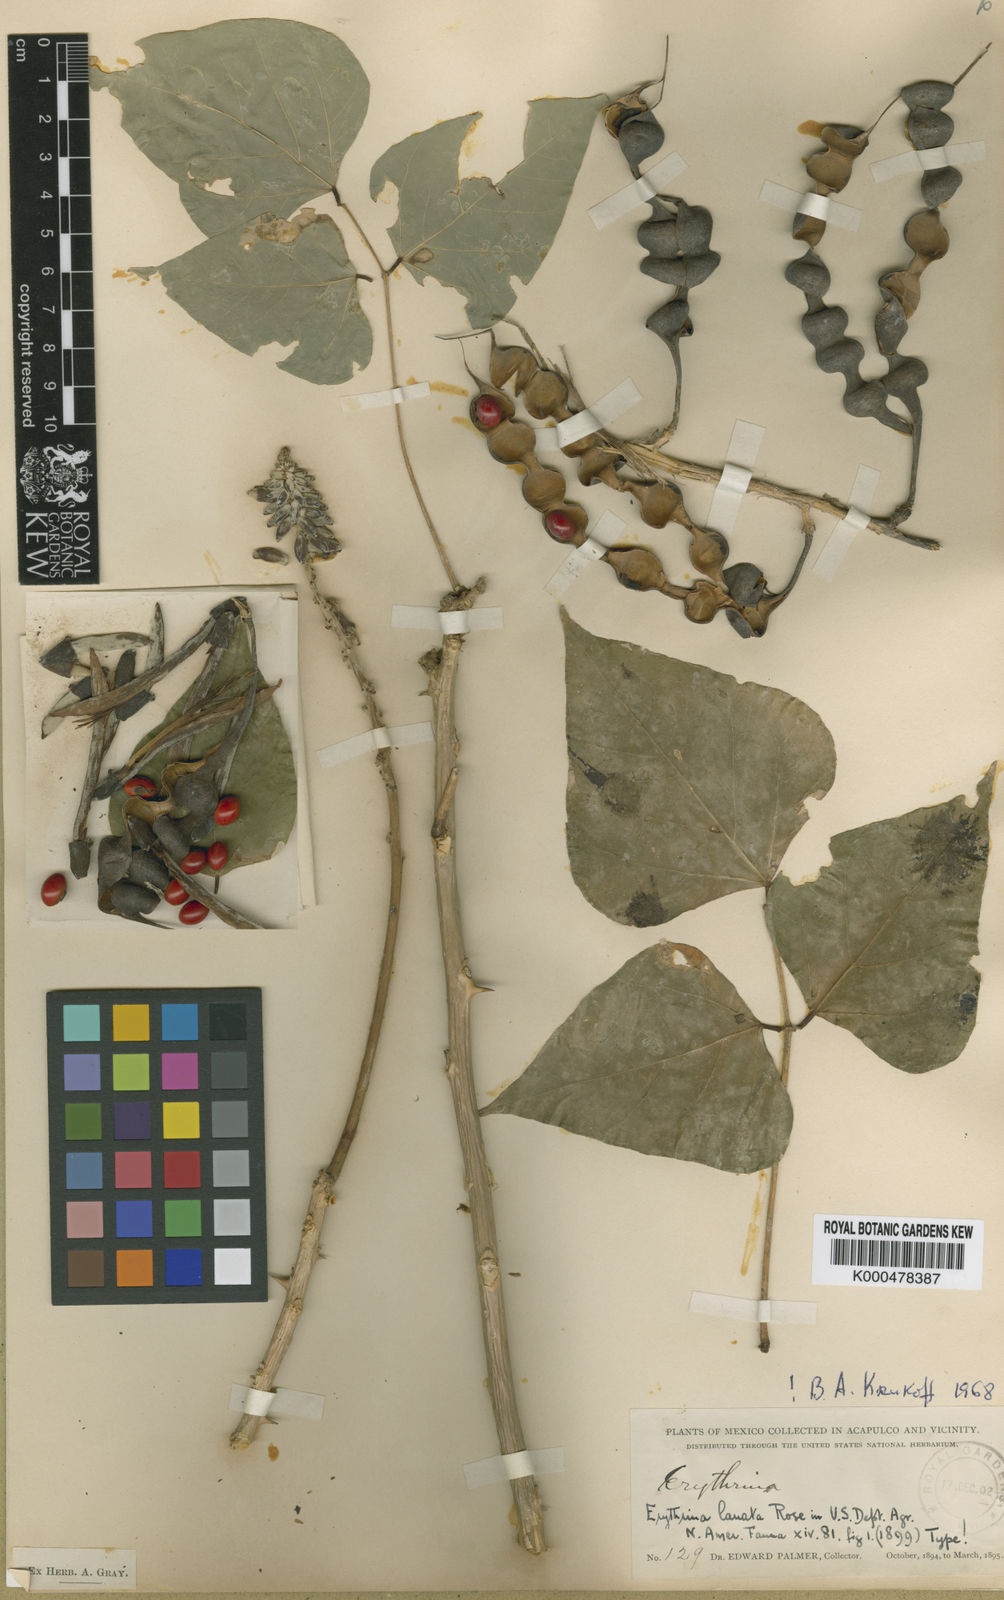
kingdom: Plantae
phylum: Tracheophyta
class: Magnoliopsida
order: Fabales
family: Fabaceae
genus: Erythrina
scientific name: Erythrina lanata
